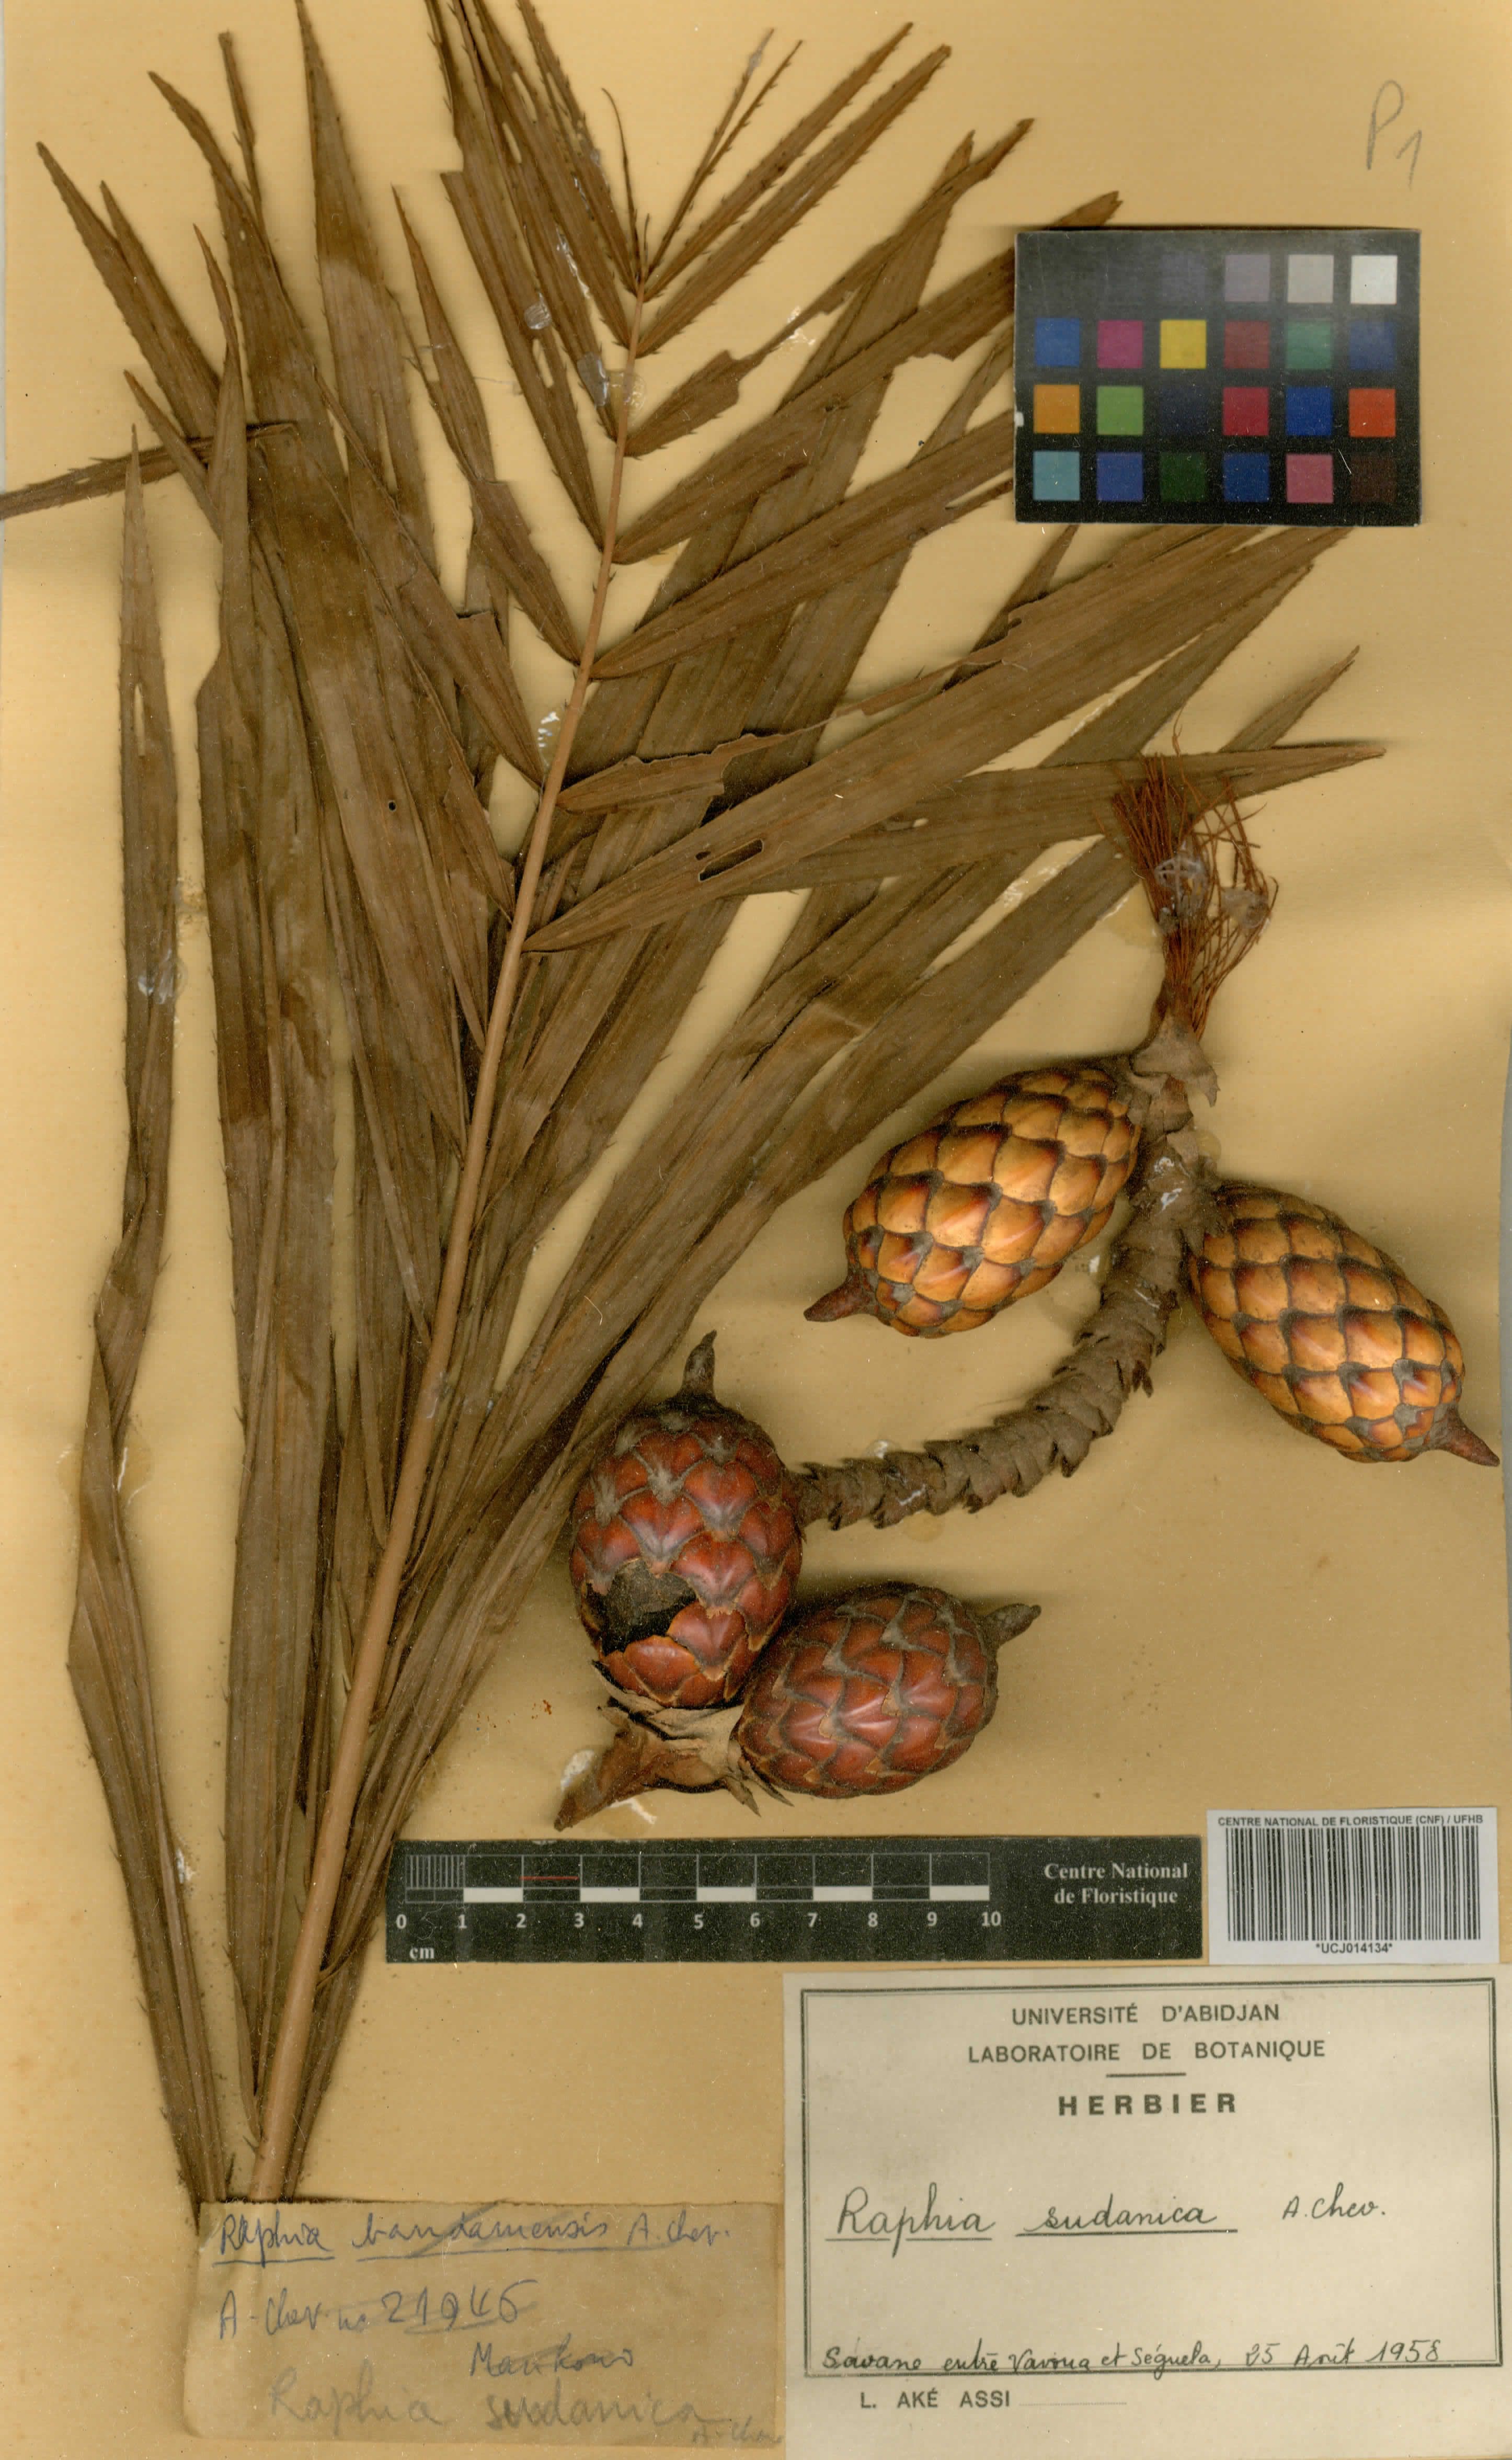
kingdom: Plantae
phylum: Tracheophyta
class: Liliopsida
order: Arecales
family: Arecaceae
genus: Raphia
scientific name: Raphia sudanica
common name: Northern raphia
